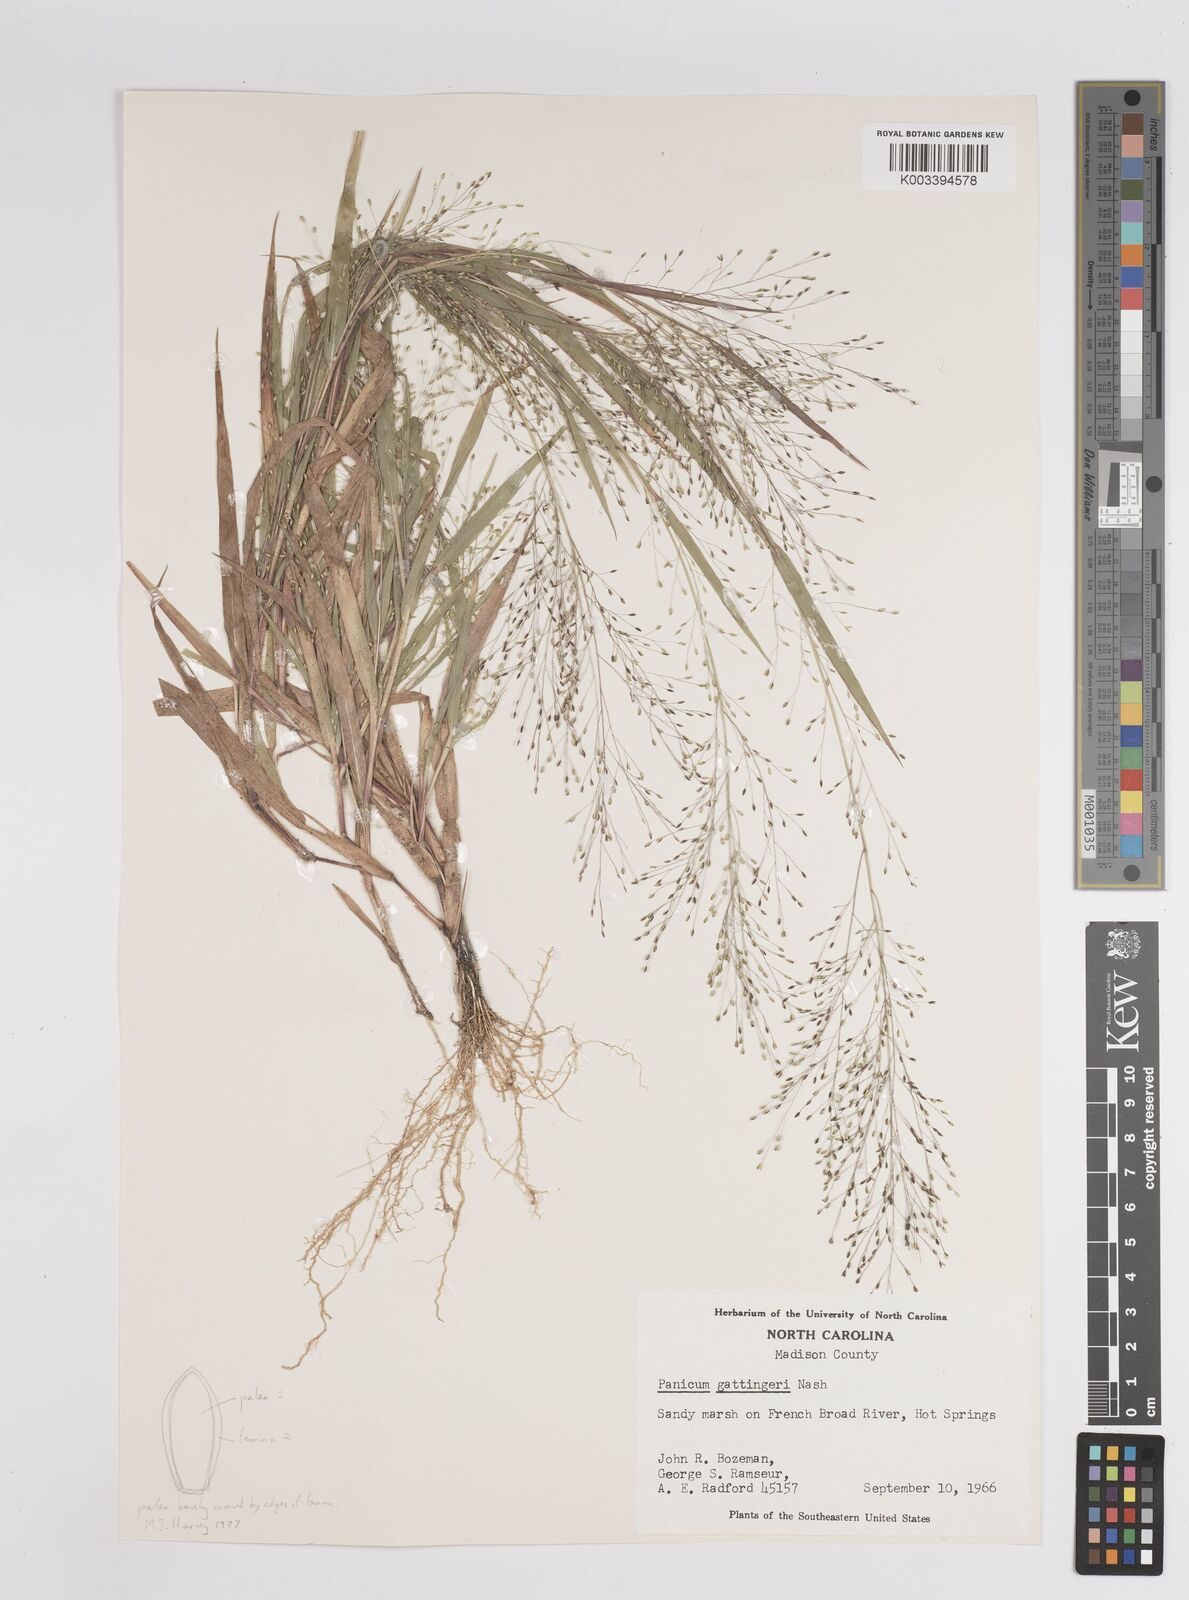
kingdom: Plantae
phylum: Tracheophyta
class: Liliopsida
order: Poales
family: Poaceae
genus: Panicum
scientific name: Panicum gattingeri
